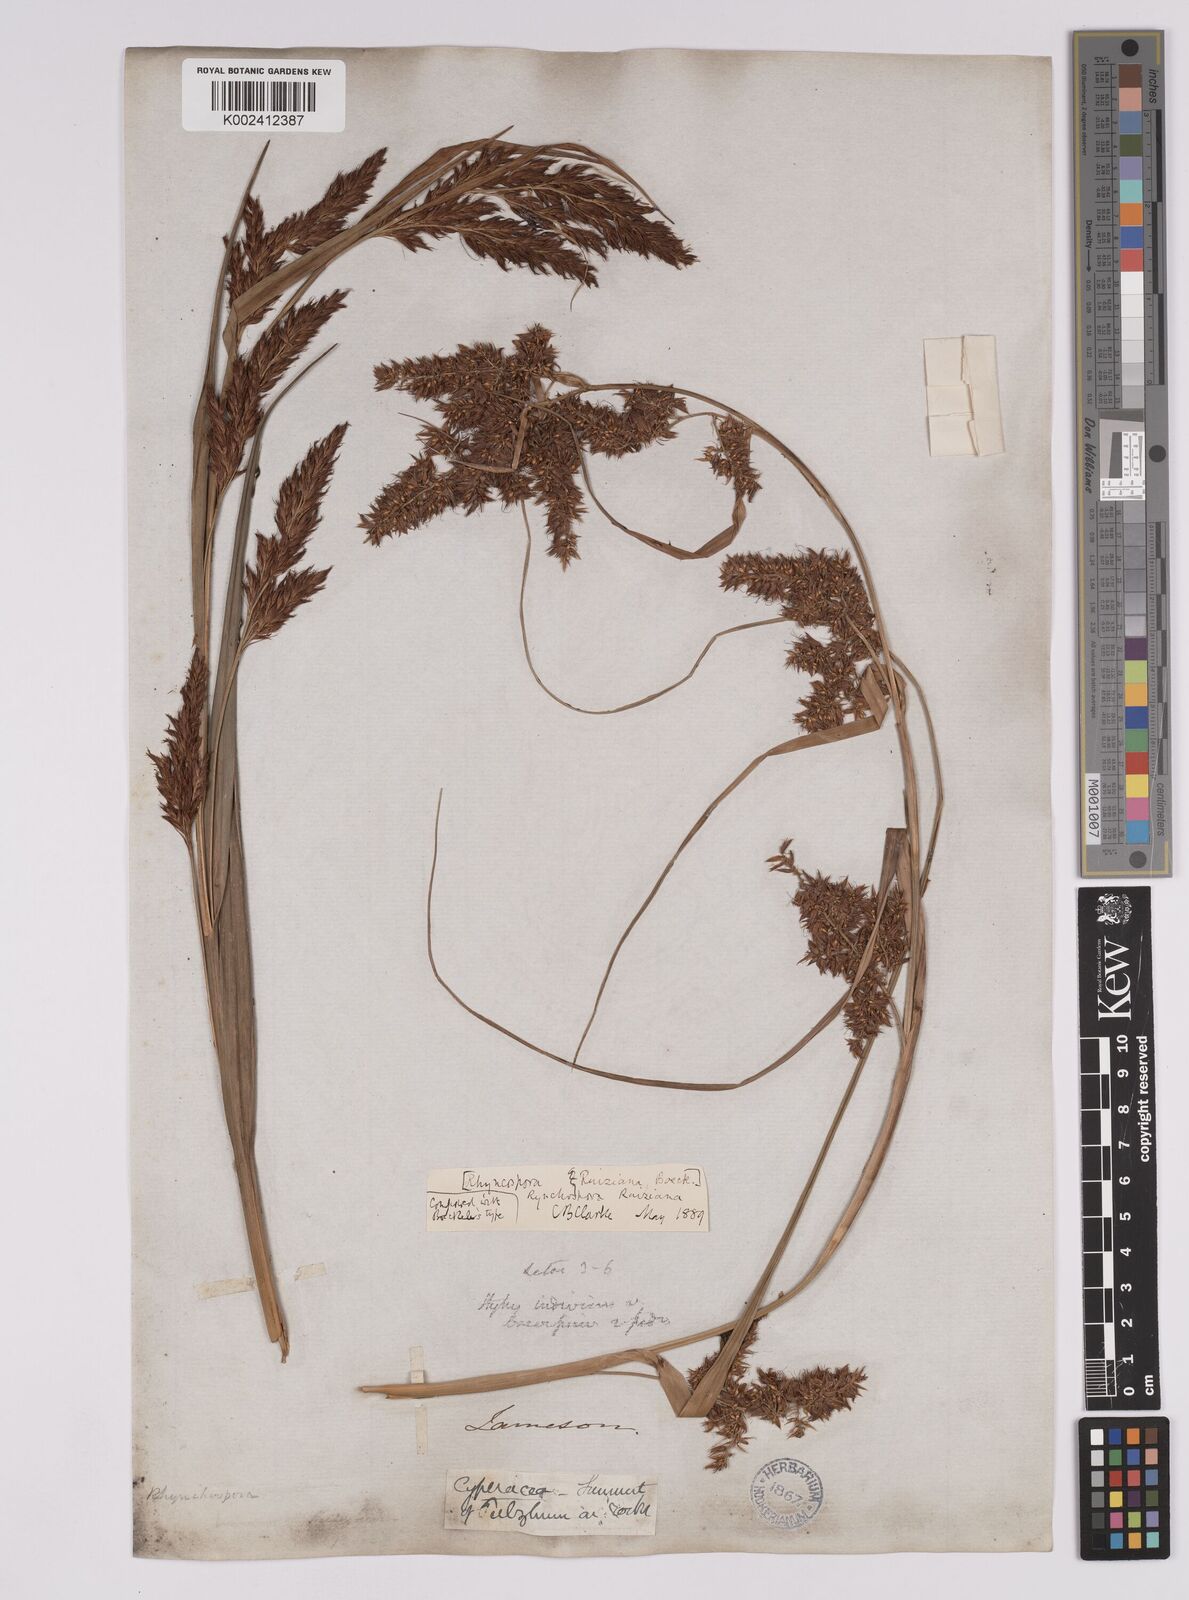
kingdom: Plantae
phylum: Tracheophyta
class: Liliopsida
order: Poales
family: Cyperaceae
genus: Rhynchospora
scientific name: Rhynchospora ruiziana
